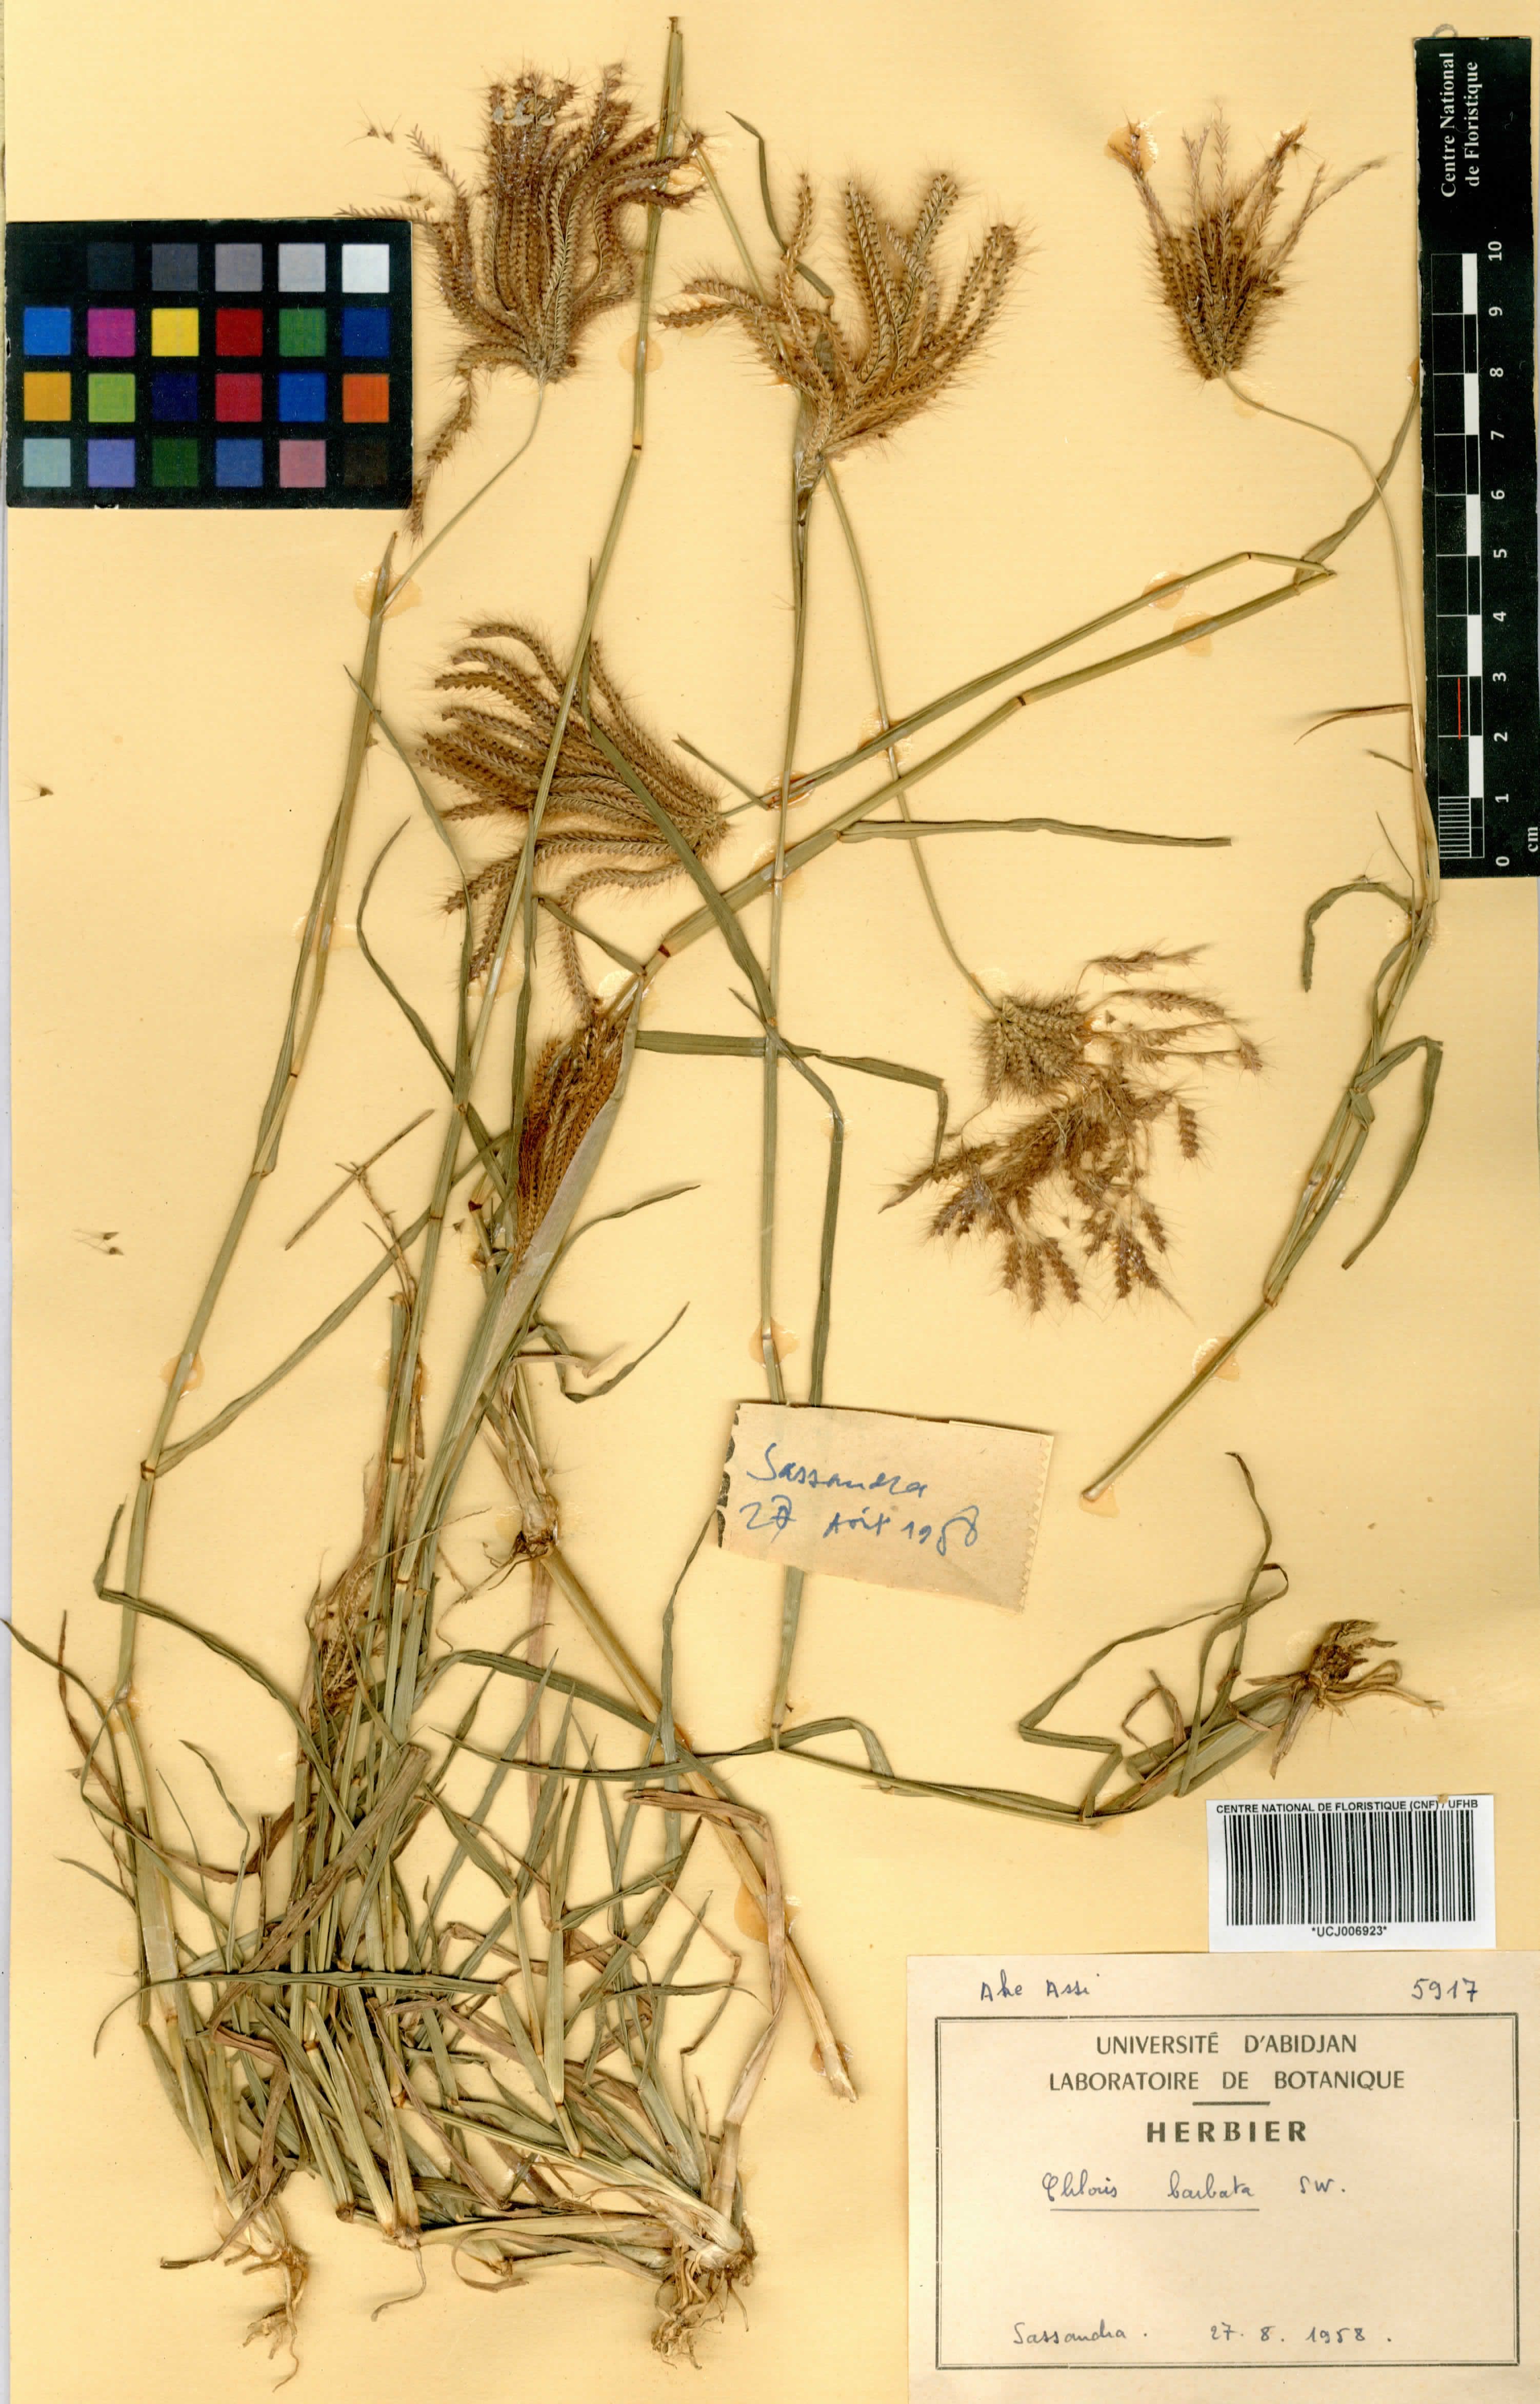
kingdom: Plantae
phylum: Tracheophyta
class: Liliopsida
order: Poales
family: Poaceae
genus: Chloris
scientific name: Chloris barbata
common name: Swollen fingergrass
